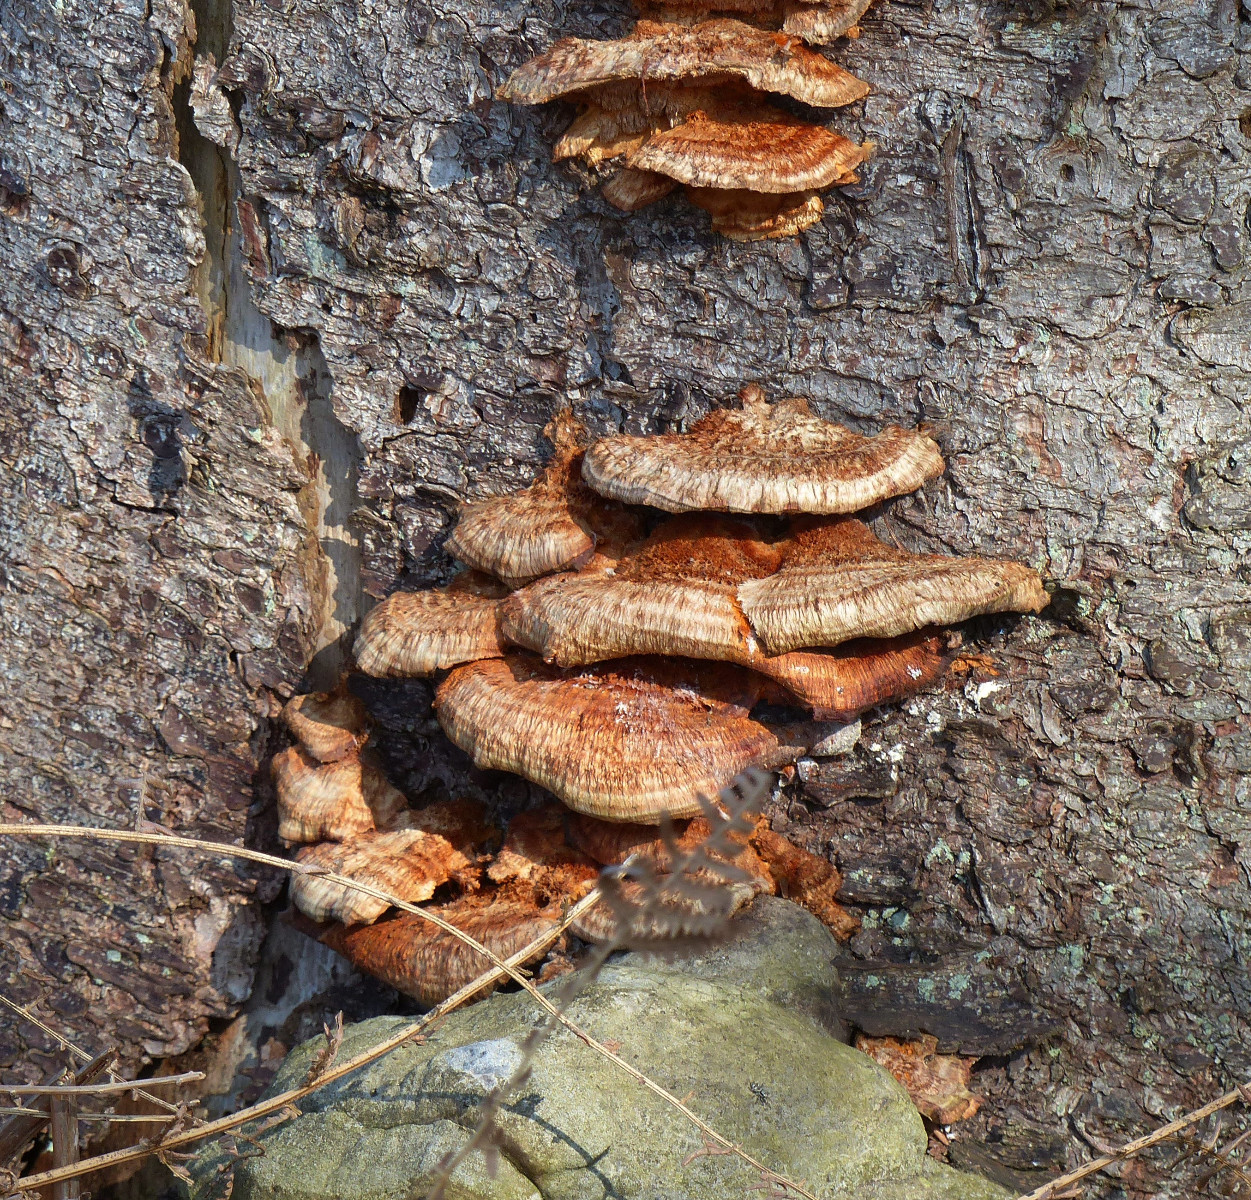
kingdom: Fungi
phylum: Basidiomycota
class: Agaricomycetes
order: Polyporales
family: Pycnoporellaceae
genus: Pycnoporellus
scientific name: Pycnoporellus fulgens
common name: flammeporesvamp
